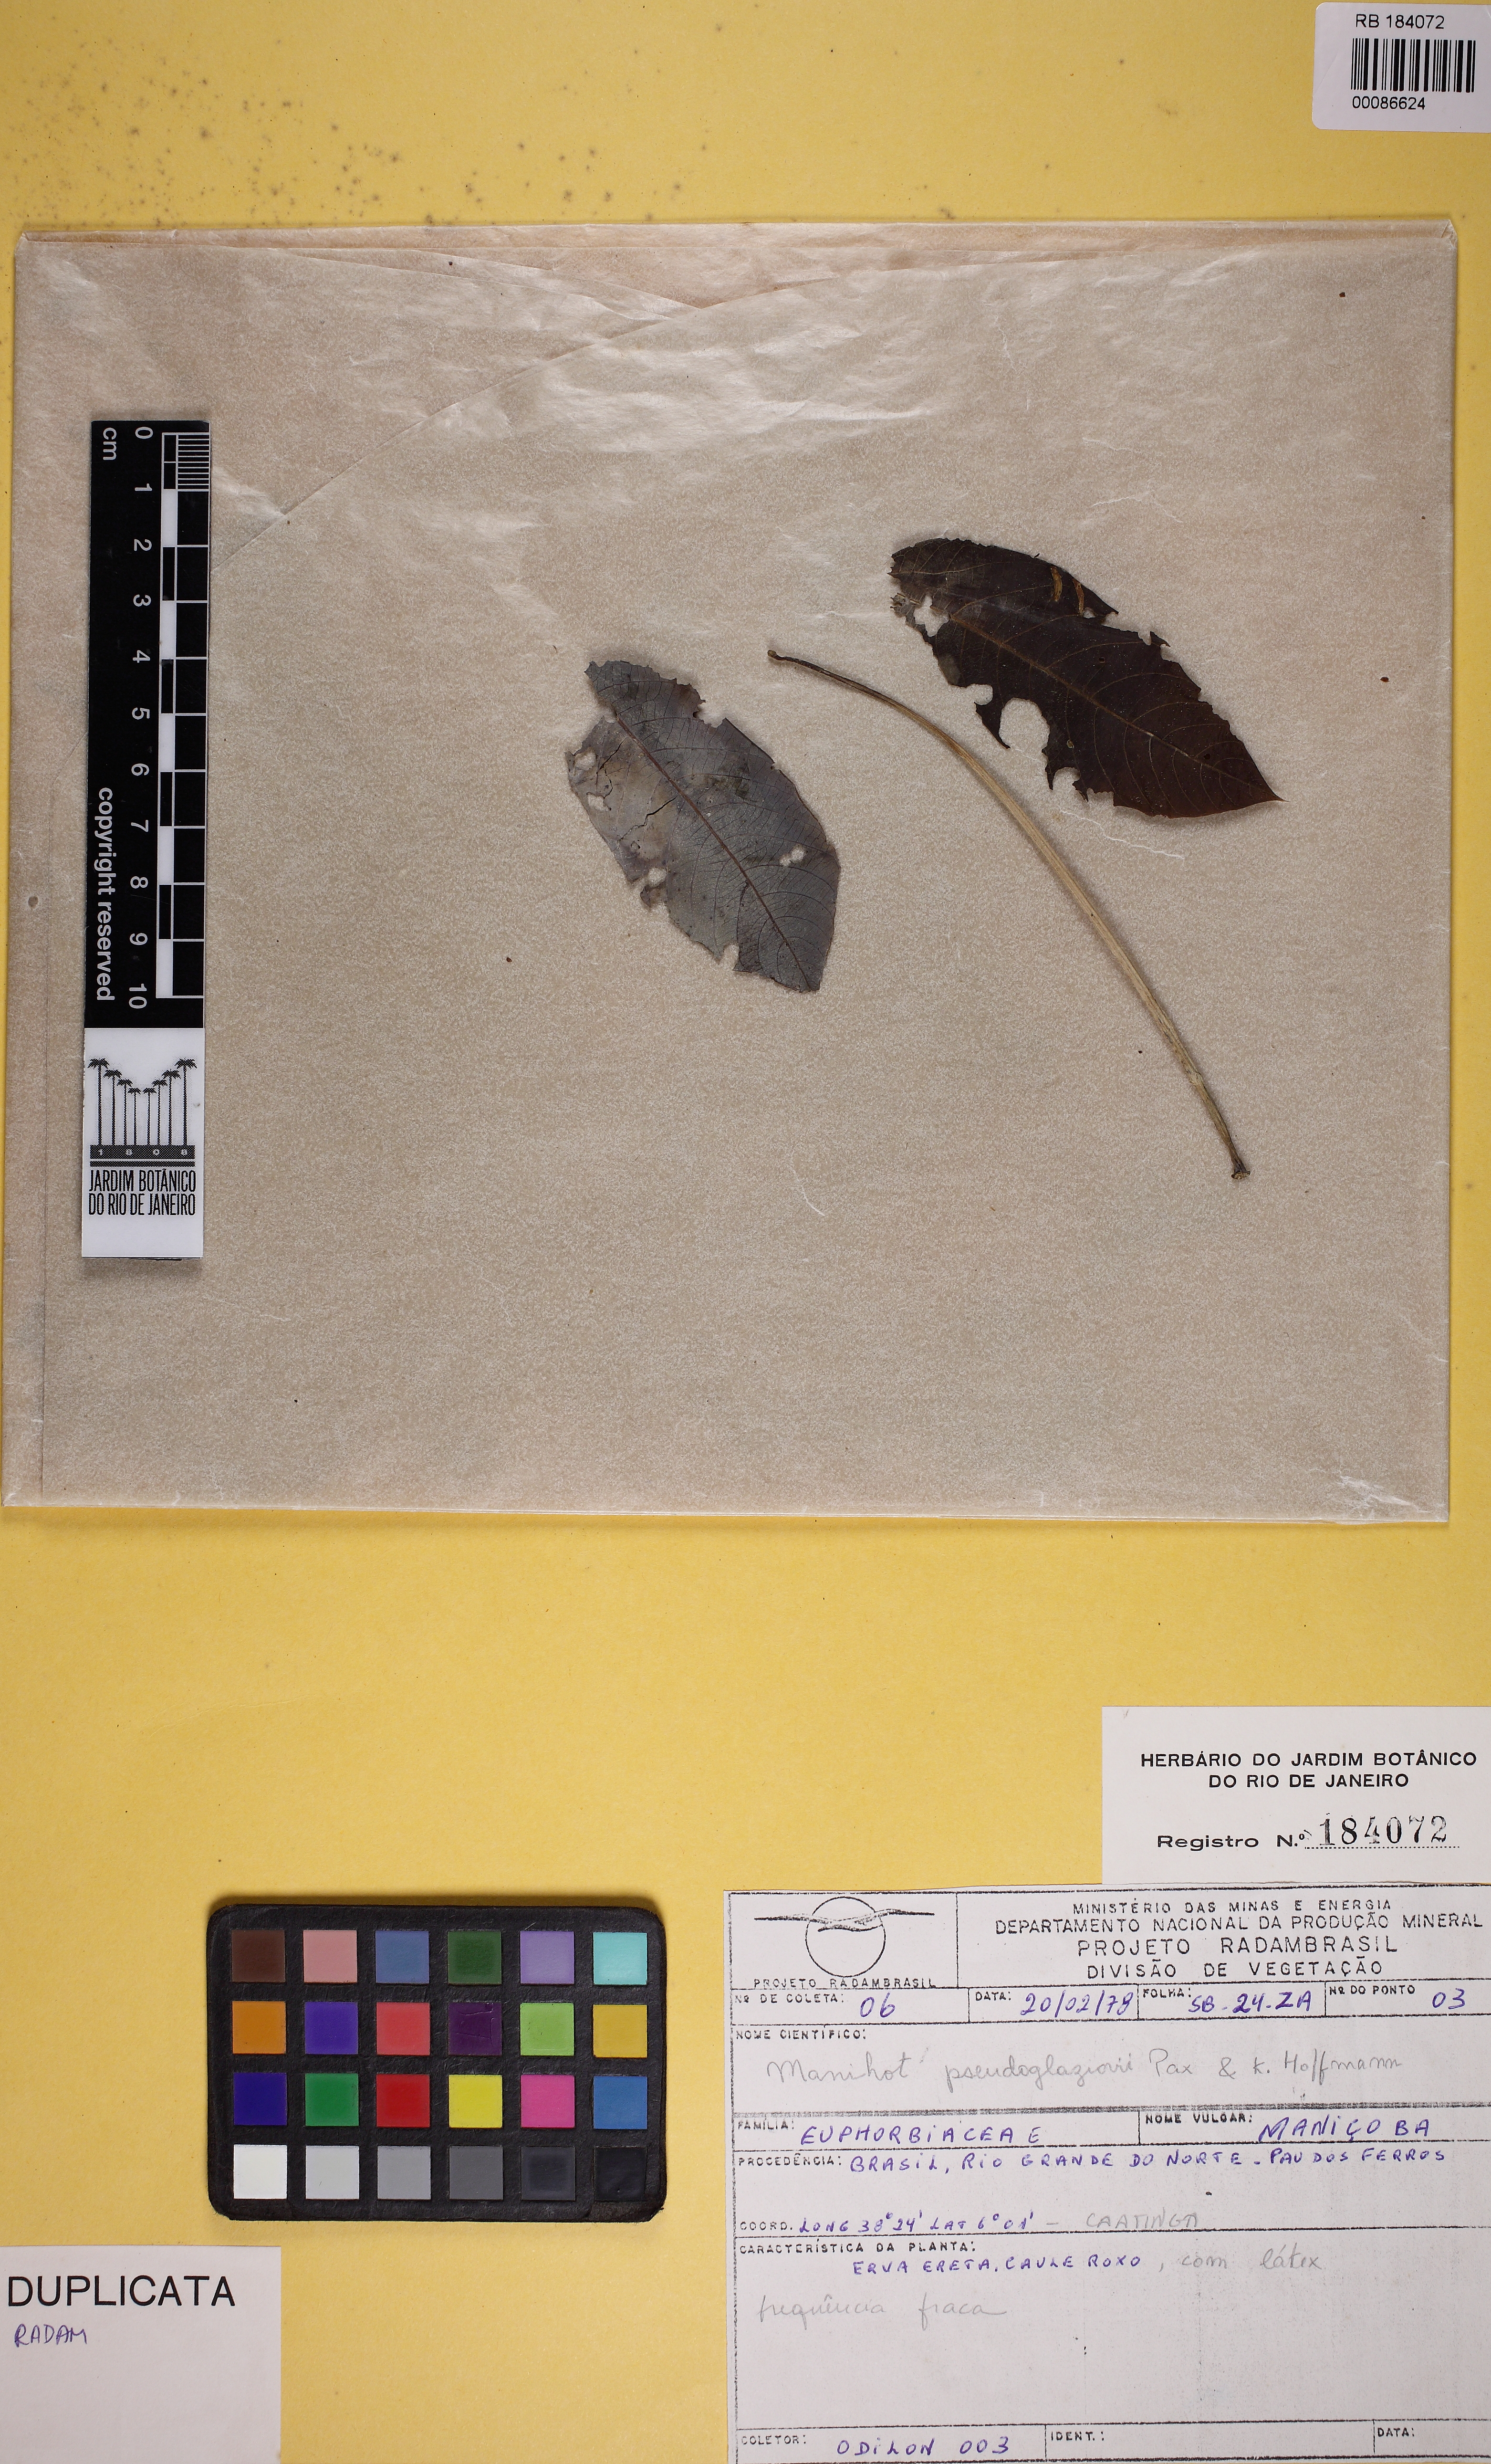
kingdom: Plantae
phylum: Tracheophyta
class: Magnoliopsida
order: Malpighiales
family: Euphorbiaceae
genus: Manihot
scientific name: Manihot pseudoglaziovii
